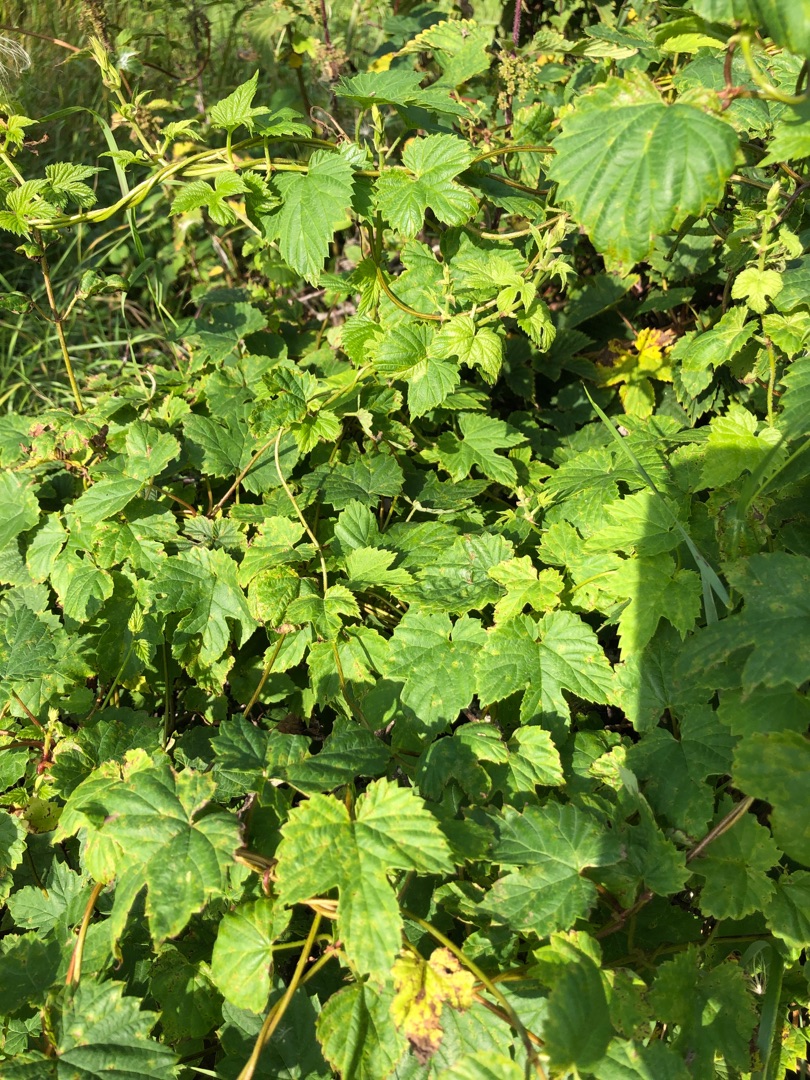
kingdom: Plantae
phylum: Tracheophyta
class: Magnoliopsida
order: Rosales
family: Cannabaceae
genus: Humulus
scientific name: Humulus lupulus
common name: Humle
